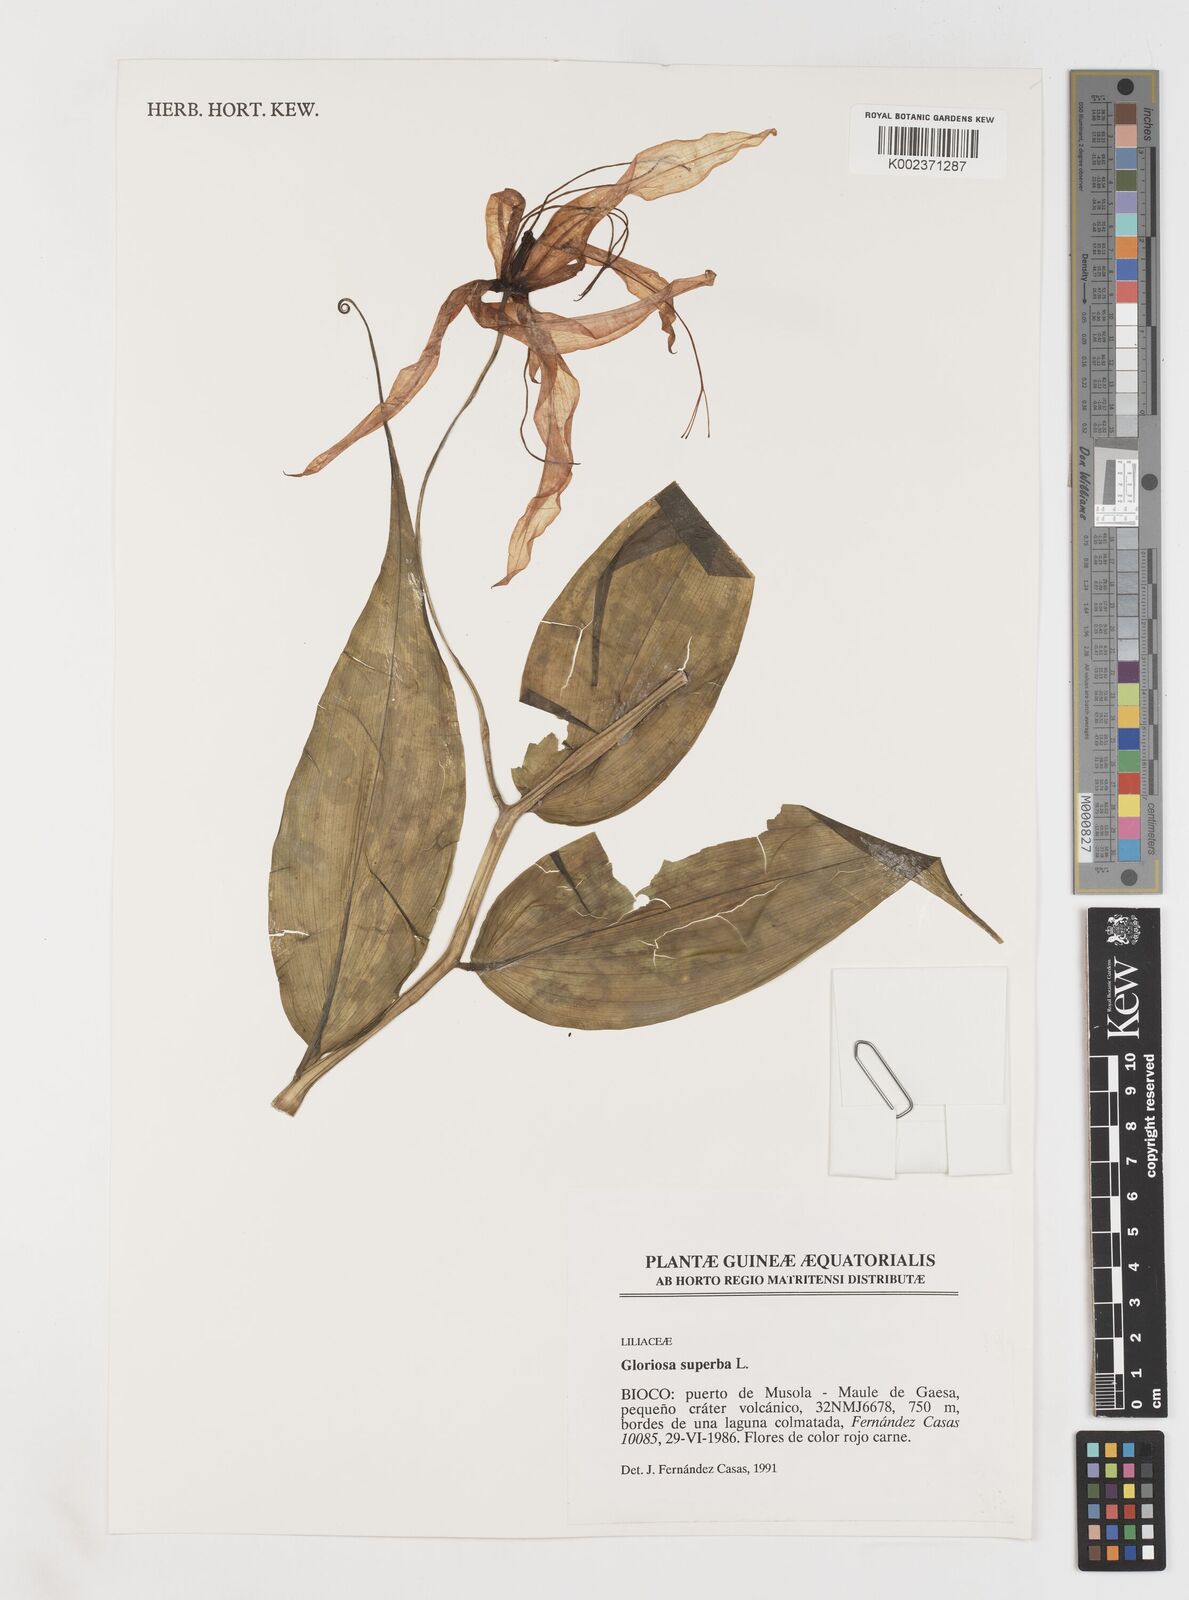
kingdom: Plantae
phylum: Tracheophyta
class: Liliopsida
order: Liliales
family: Colchicaceae
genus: Gloriosa
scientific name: Gloriosa simplex
